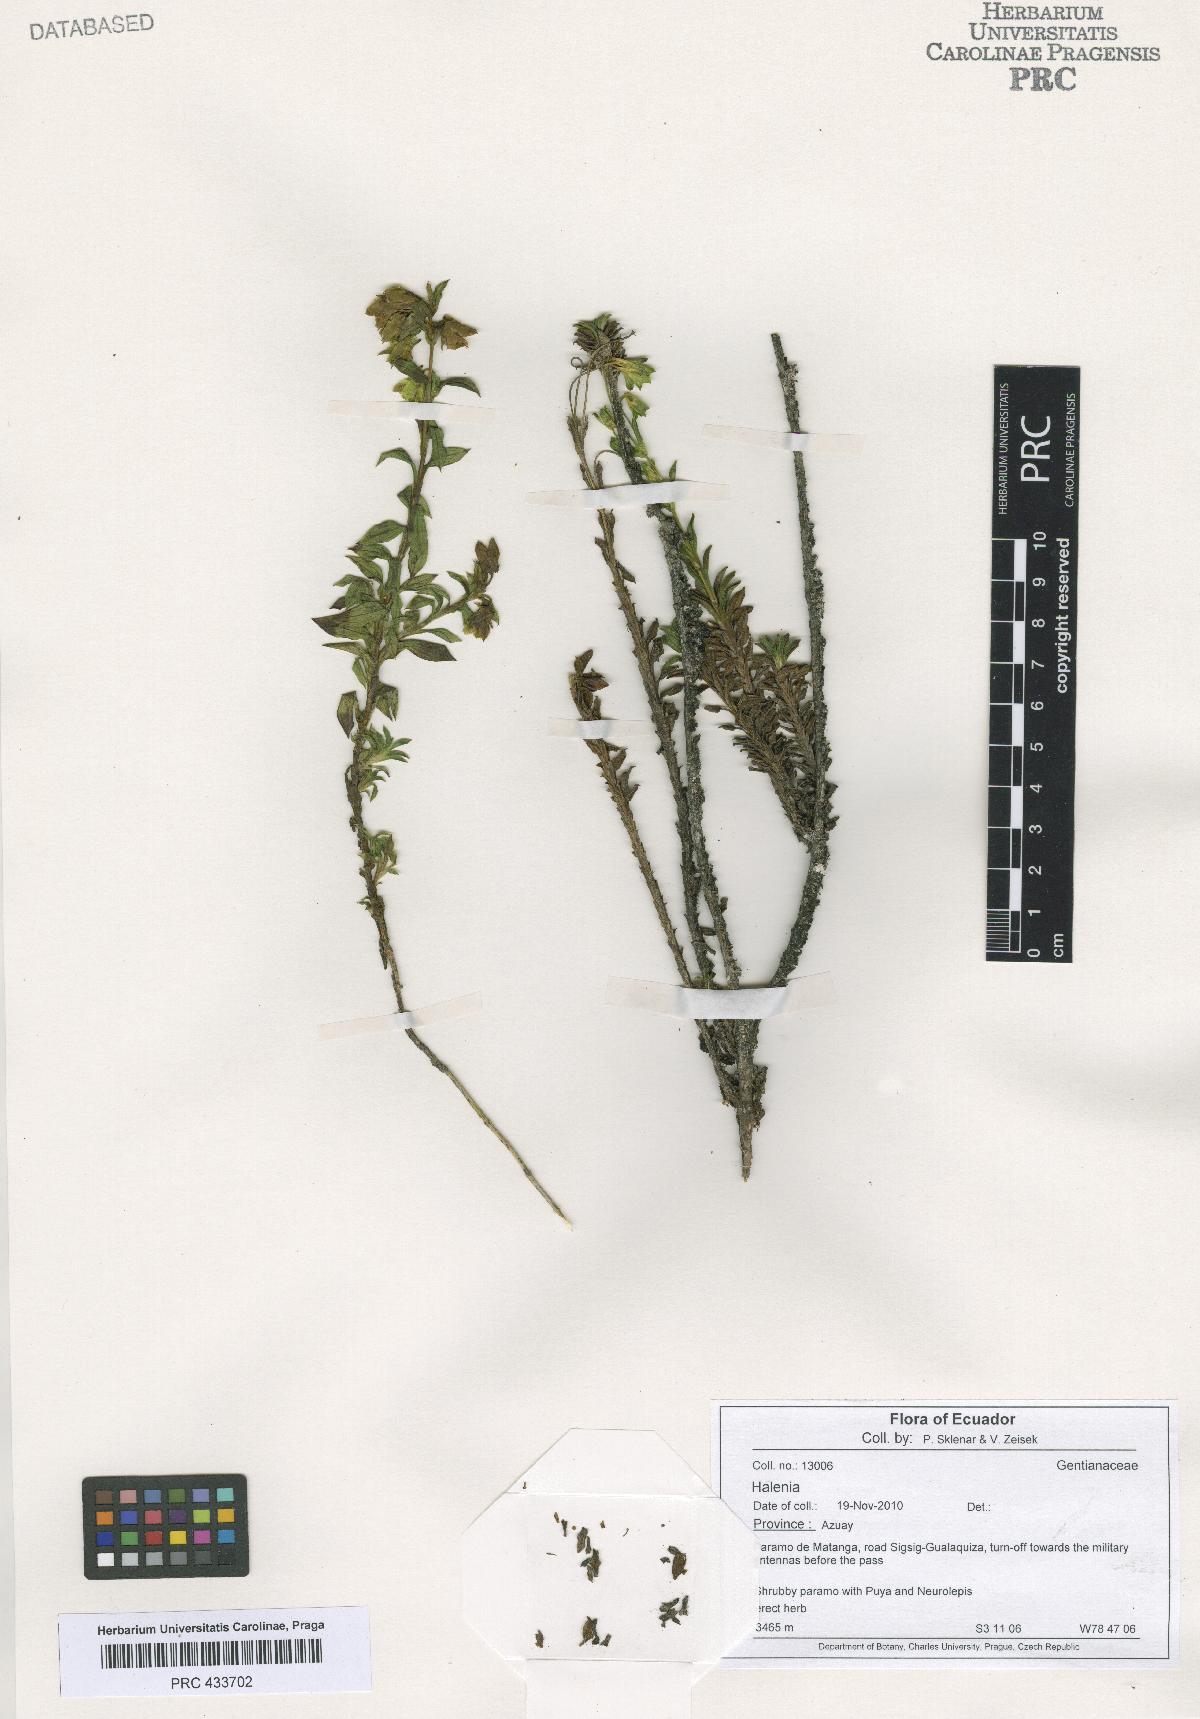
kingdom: Plantae
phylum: Tracheophyta
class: Magnoliopsida
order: Gentianales
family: Gentianaceae
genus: Halenia
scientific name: Halenia
